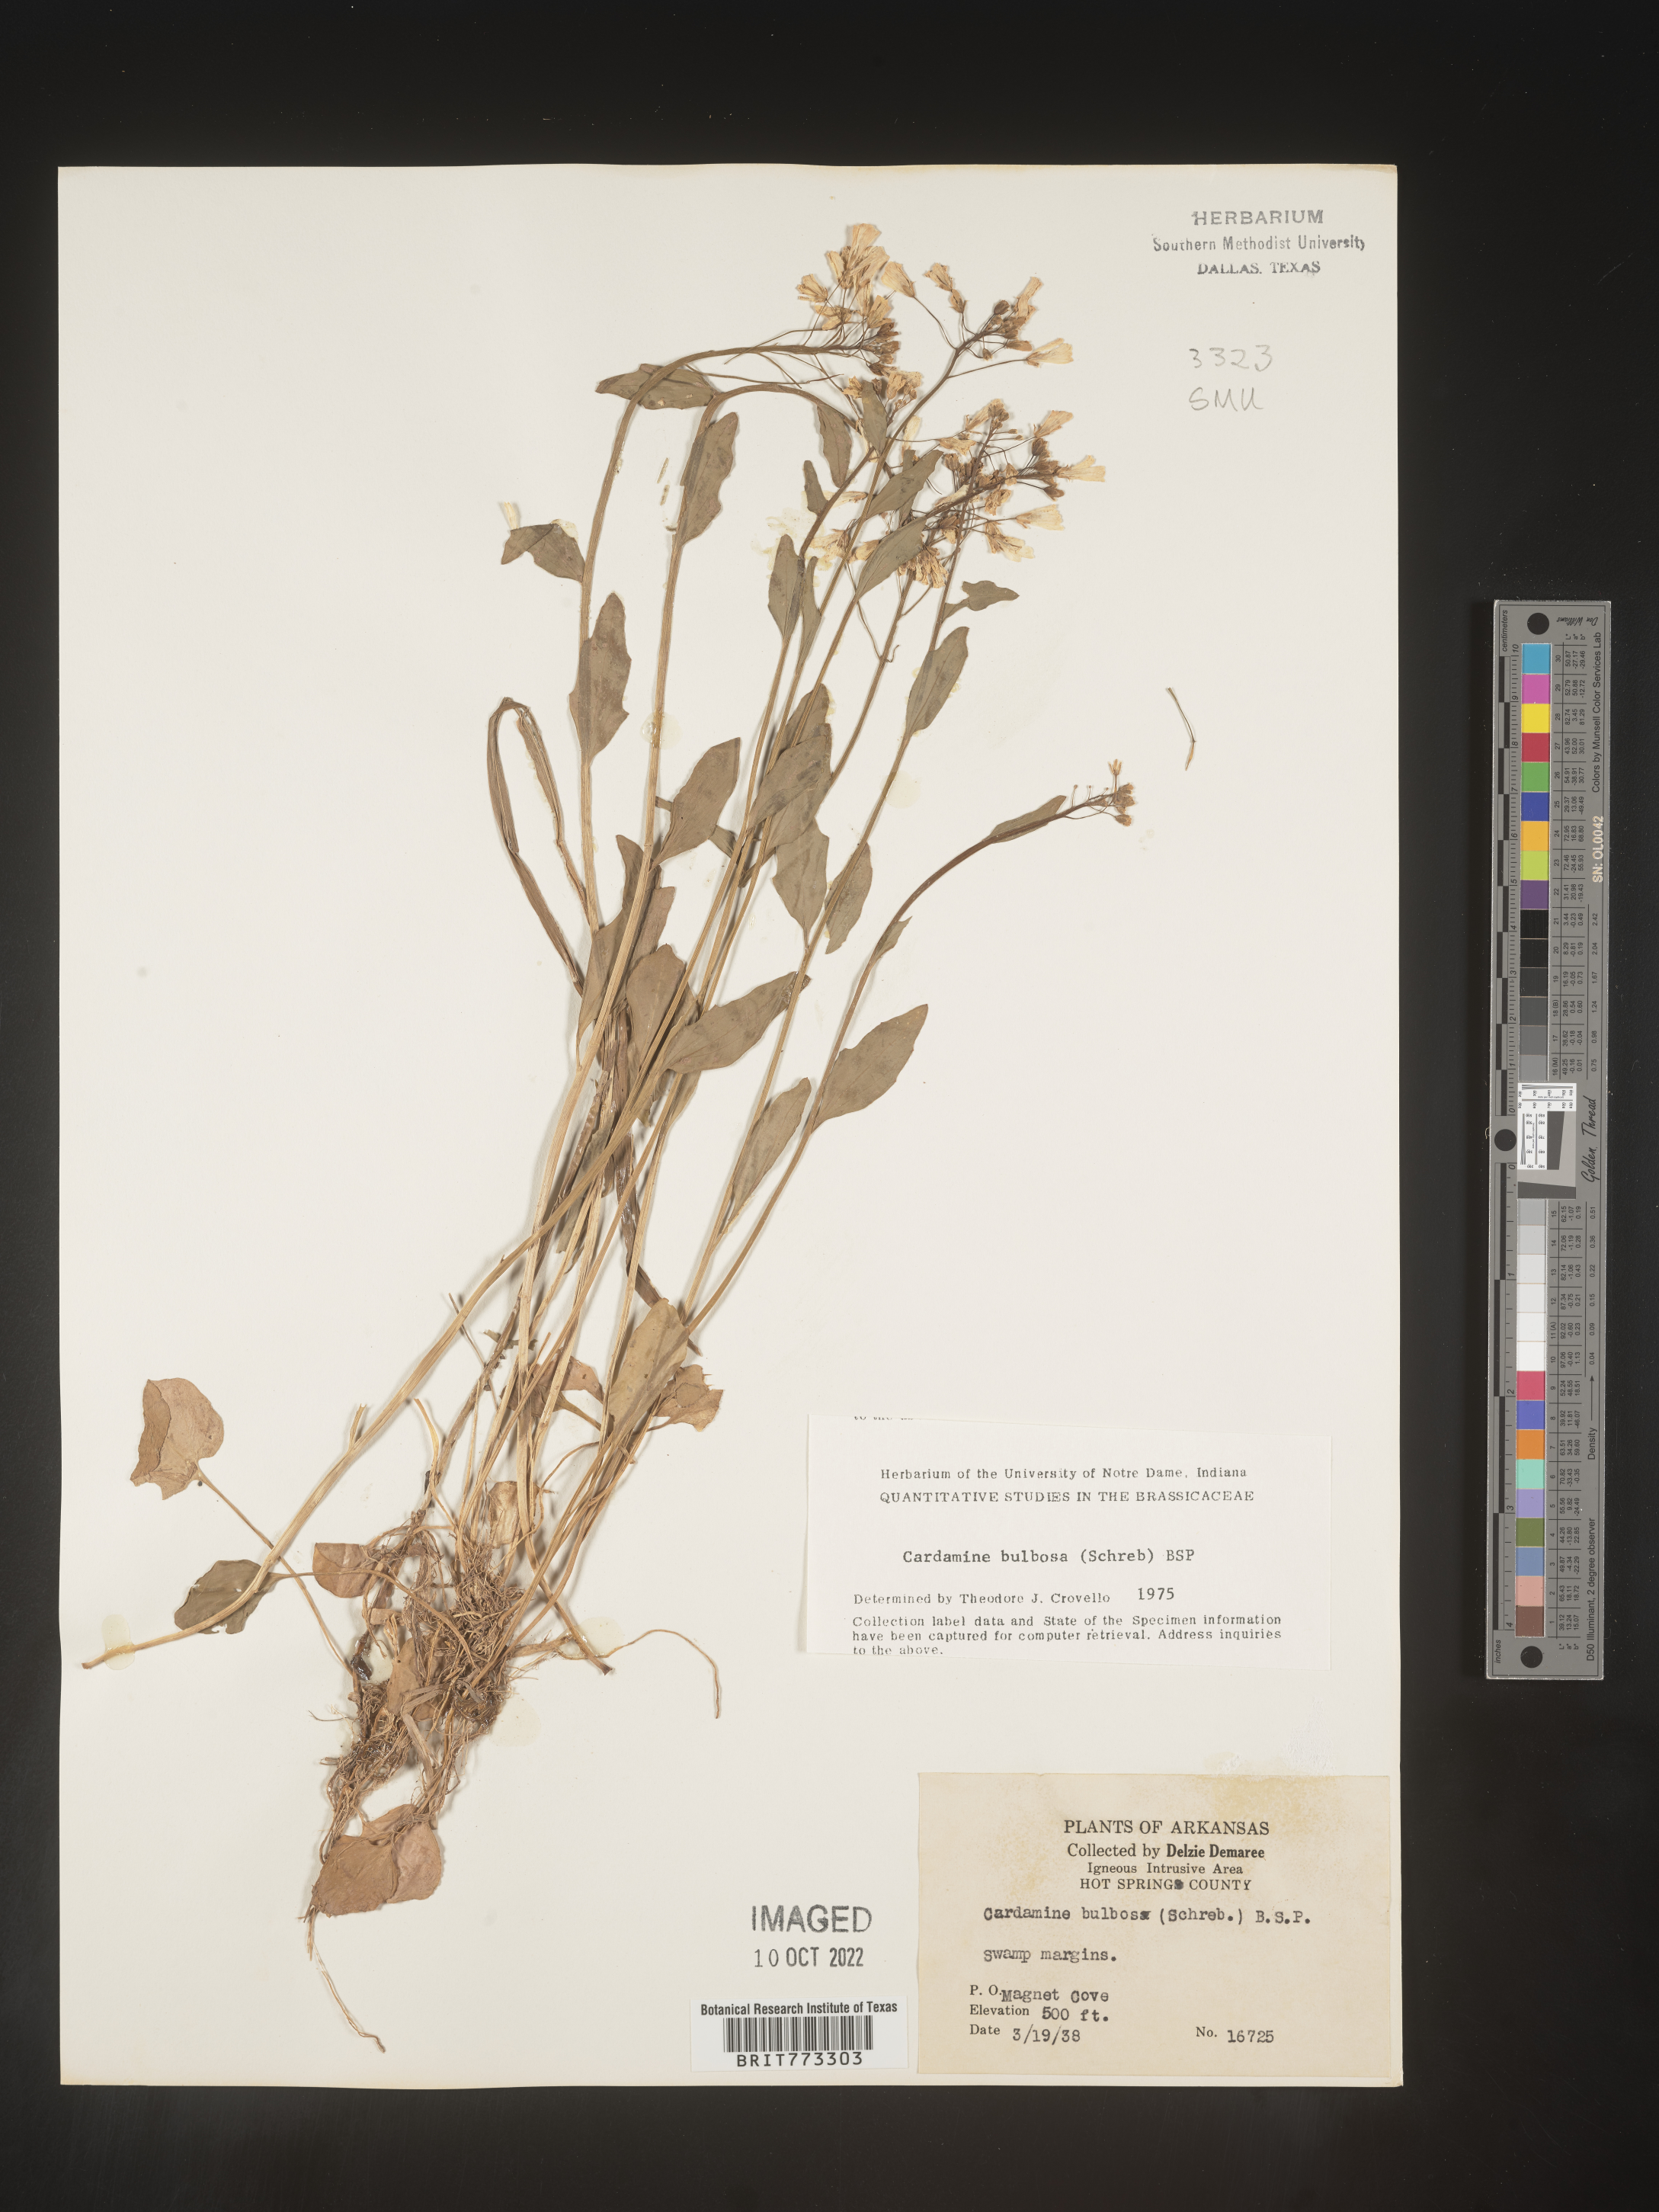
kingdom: Plantae
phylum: Tracheophyta
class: Magnoliopsida
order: Brassicales
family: Brassicaceae
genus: Cardamine
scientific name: Cardamine bulbosa
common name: Spring cress
